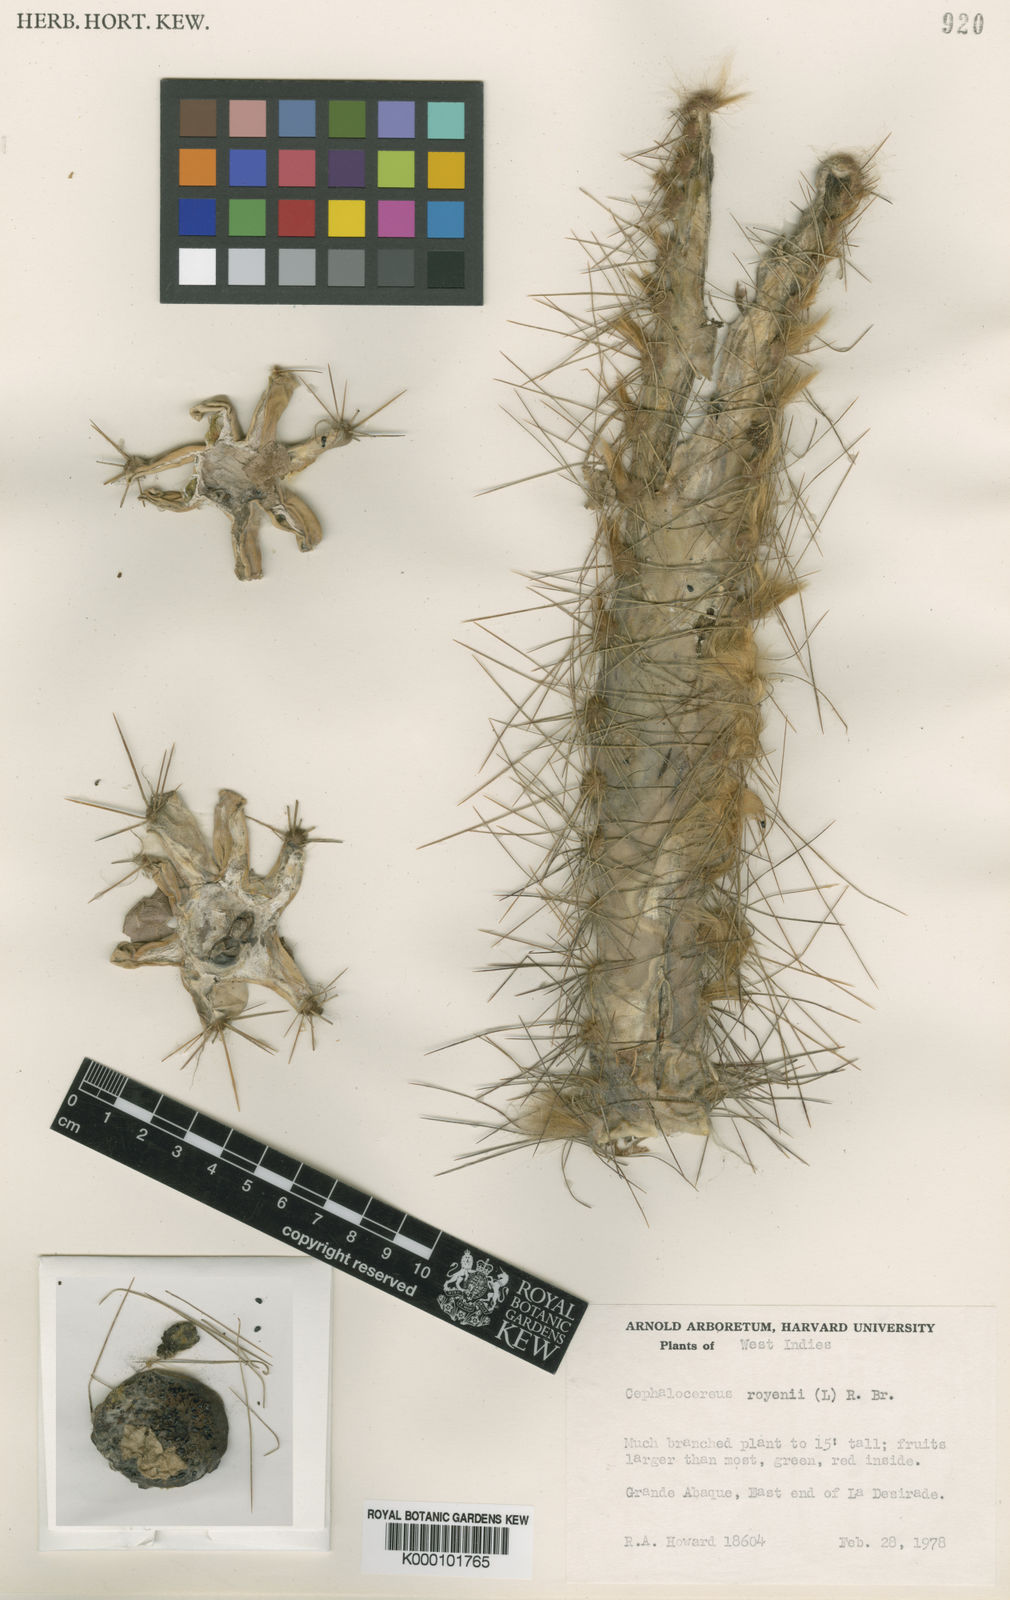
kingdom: Plantae
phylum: Tracheophyta
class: Magnoliopsida
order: Caryophyllales
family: Cactaceae
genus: Pilosocereus
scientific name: Pilosocereus polygonus
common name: Key tree cactus
